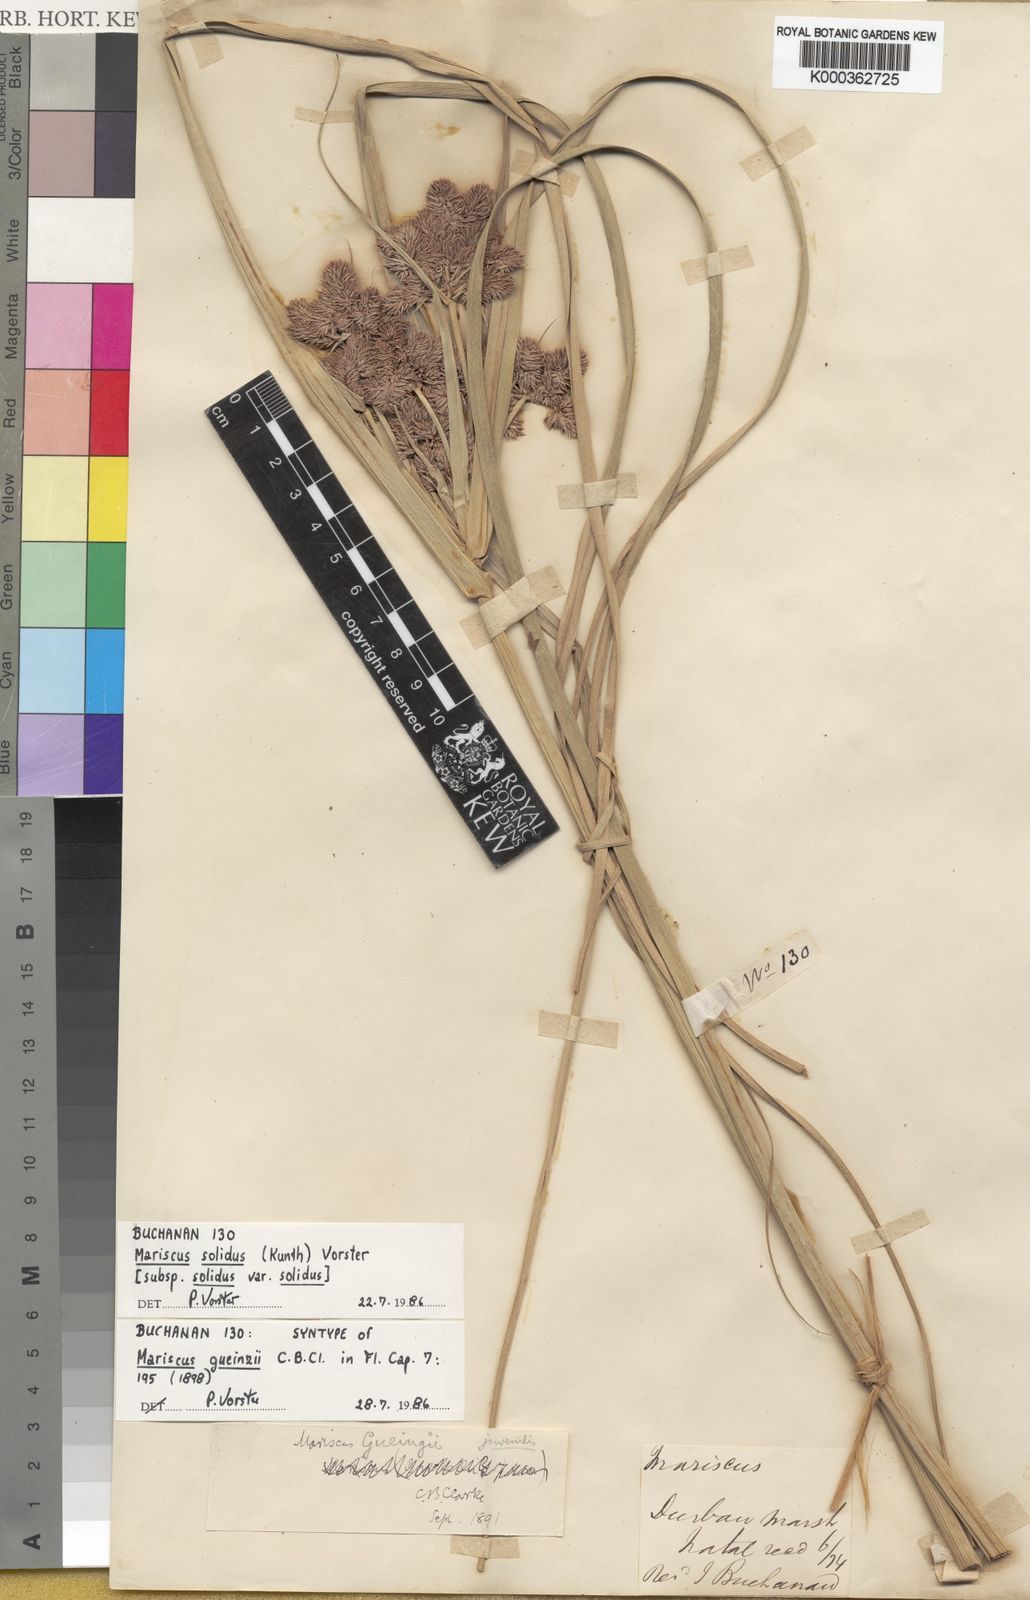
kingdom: Plantae
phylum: Tracheophyta
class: Liliopsida
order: Poales
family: Cyperaceae
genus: Cyperus
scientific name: Cyperus solidus
